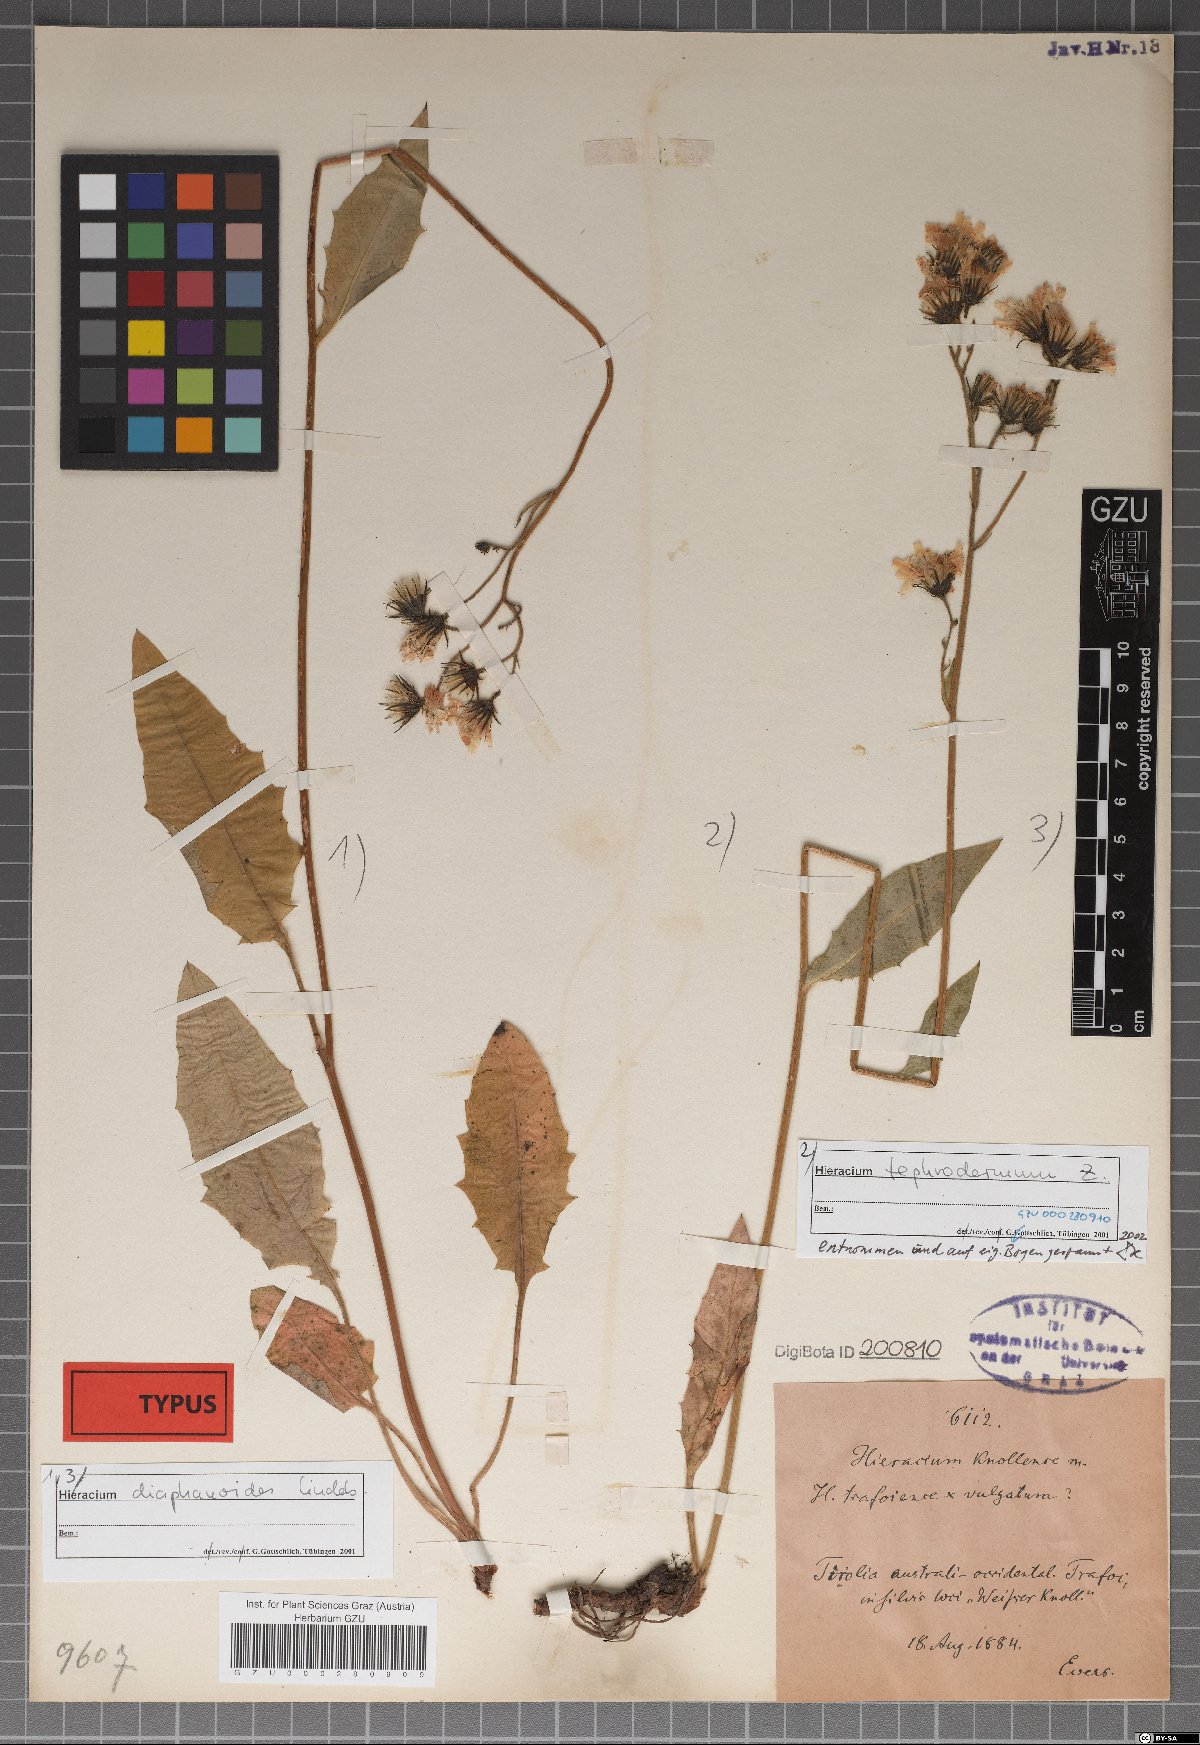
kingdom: Plantae
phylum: Tracheophyta
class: Magnoliopsida
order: Asterales
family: Asteraceae
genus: Hieracium
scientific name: Hieracium knollense
